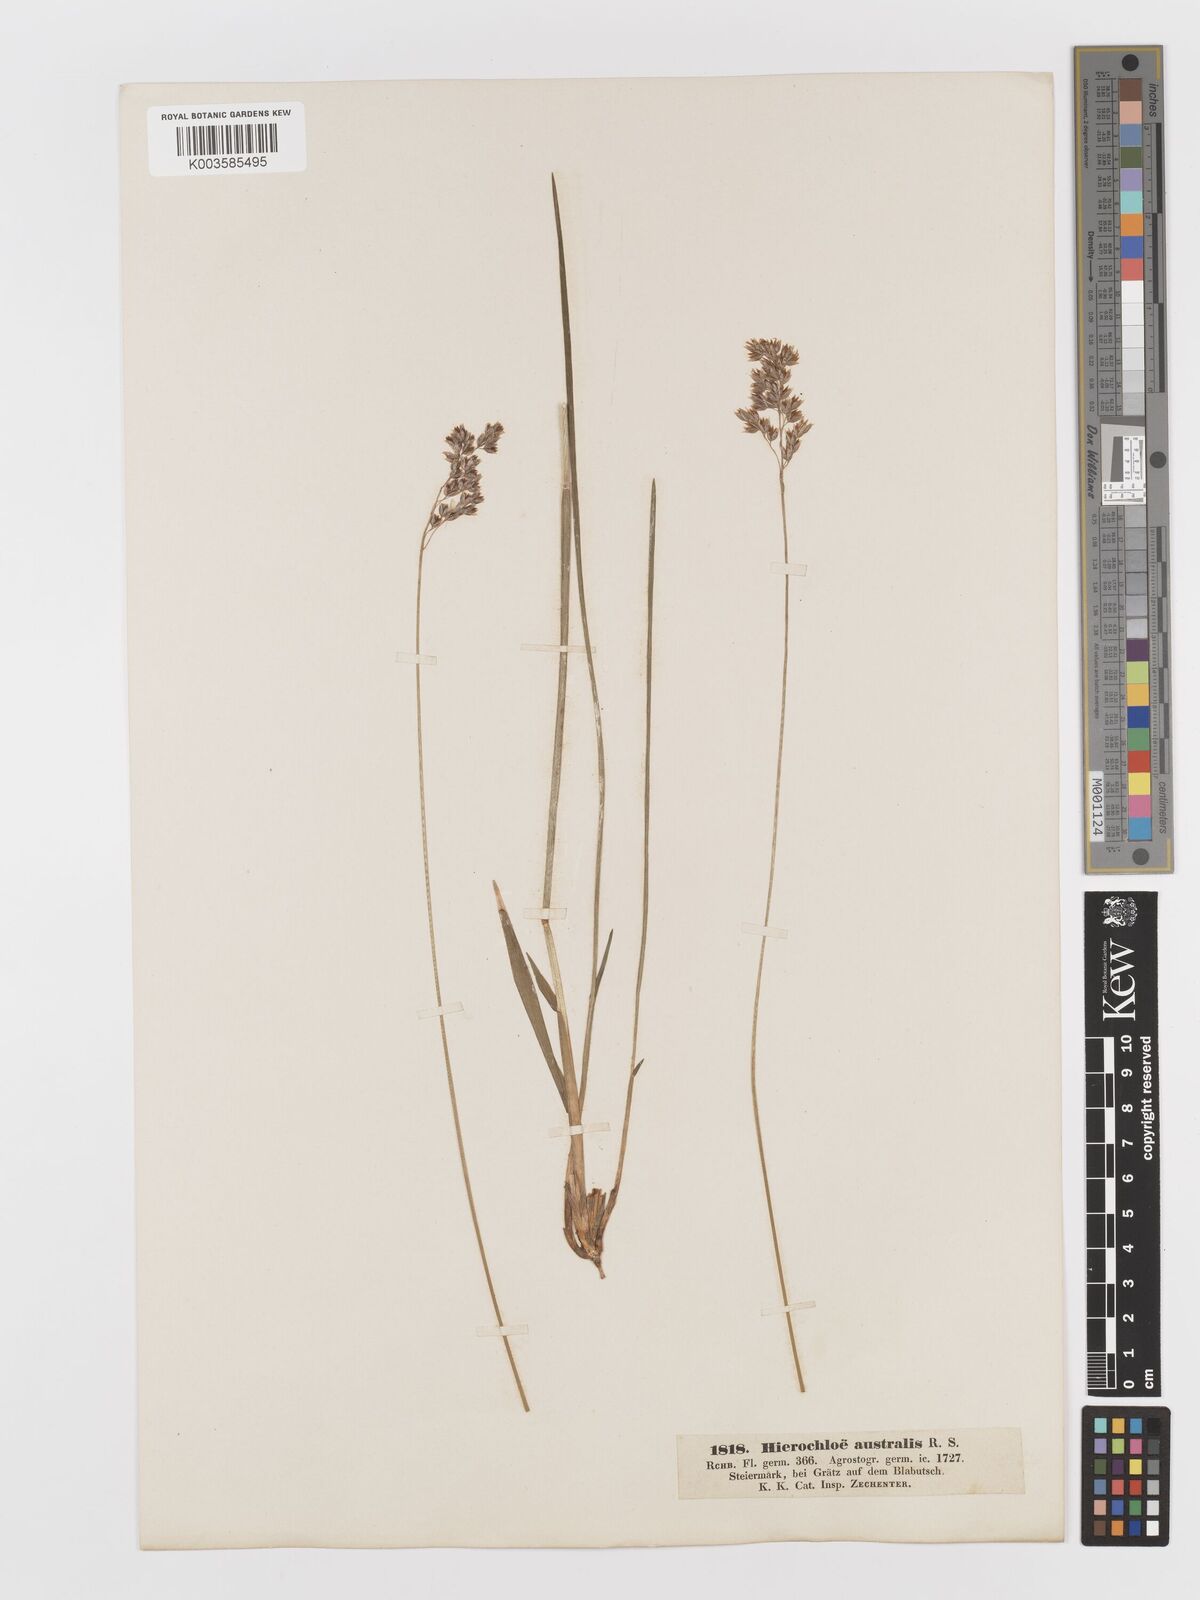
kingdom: Plantae
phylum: Tracheophyta
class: Liliopsida
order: Poales
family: Poaceae
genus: Anthoxanthum
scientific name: Anthoxanthum australe
